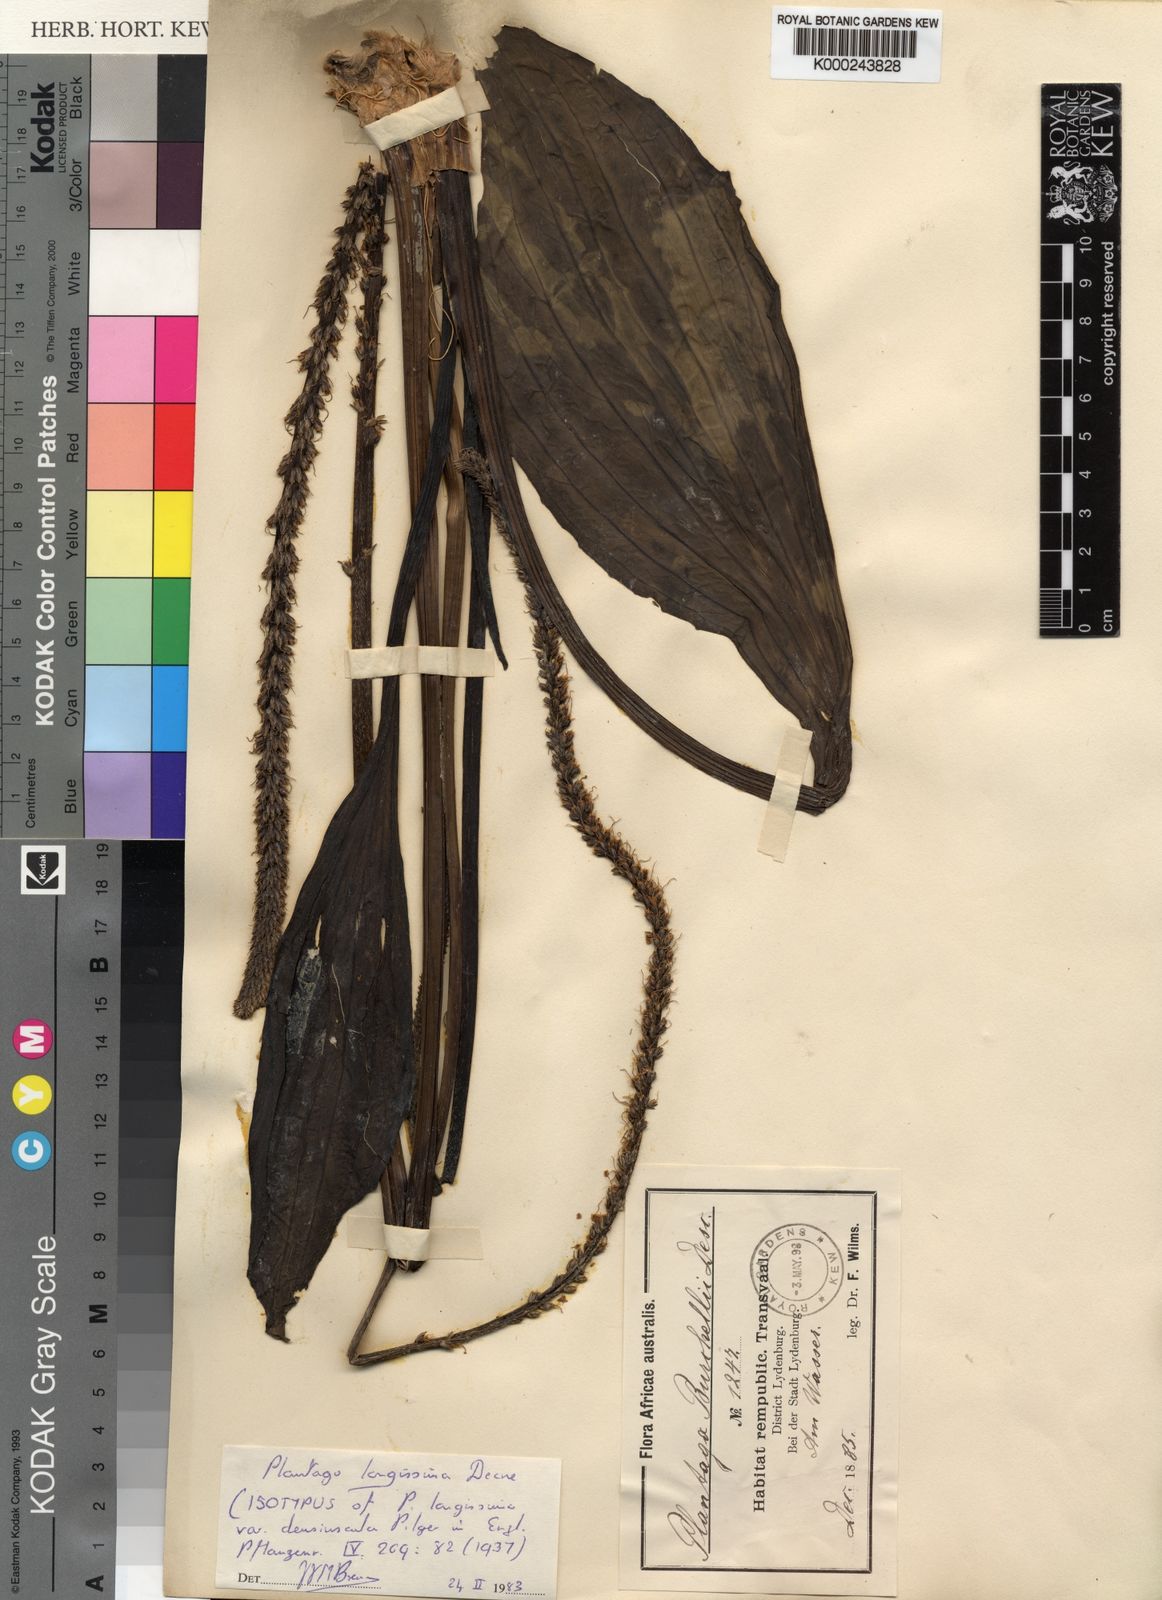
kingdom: Plantae
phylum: Tracheophyta
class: Magnoliopsida
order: Lamiales
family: Plantaginaceae
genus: Plantago
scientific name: Plantago longissima
